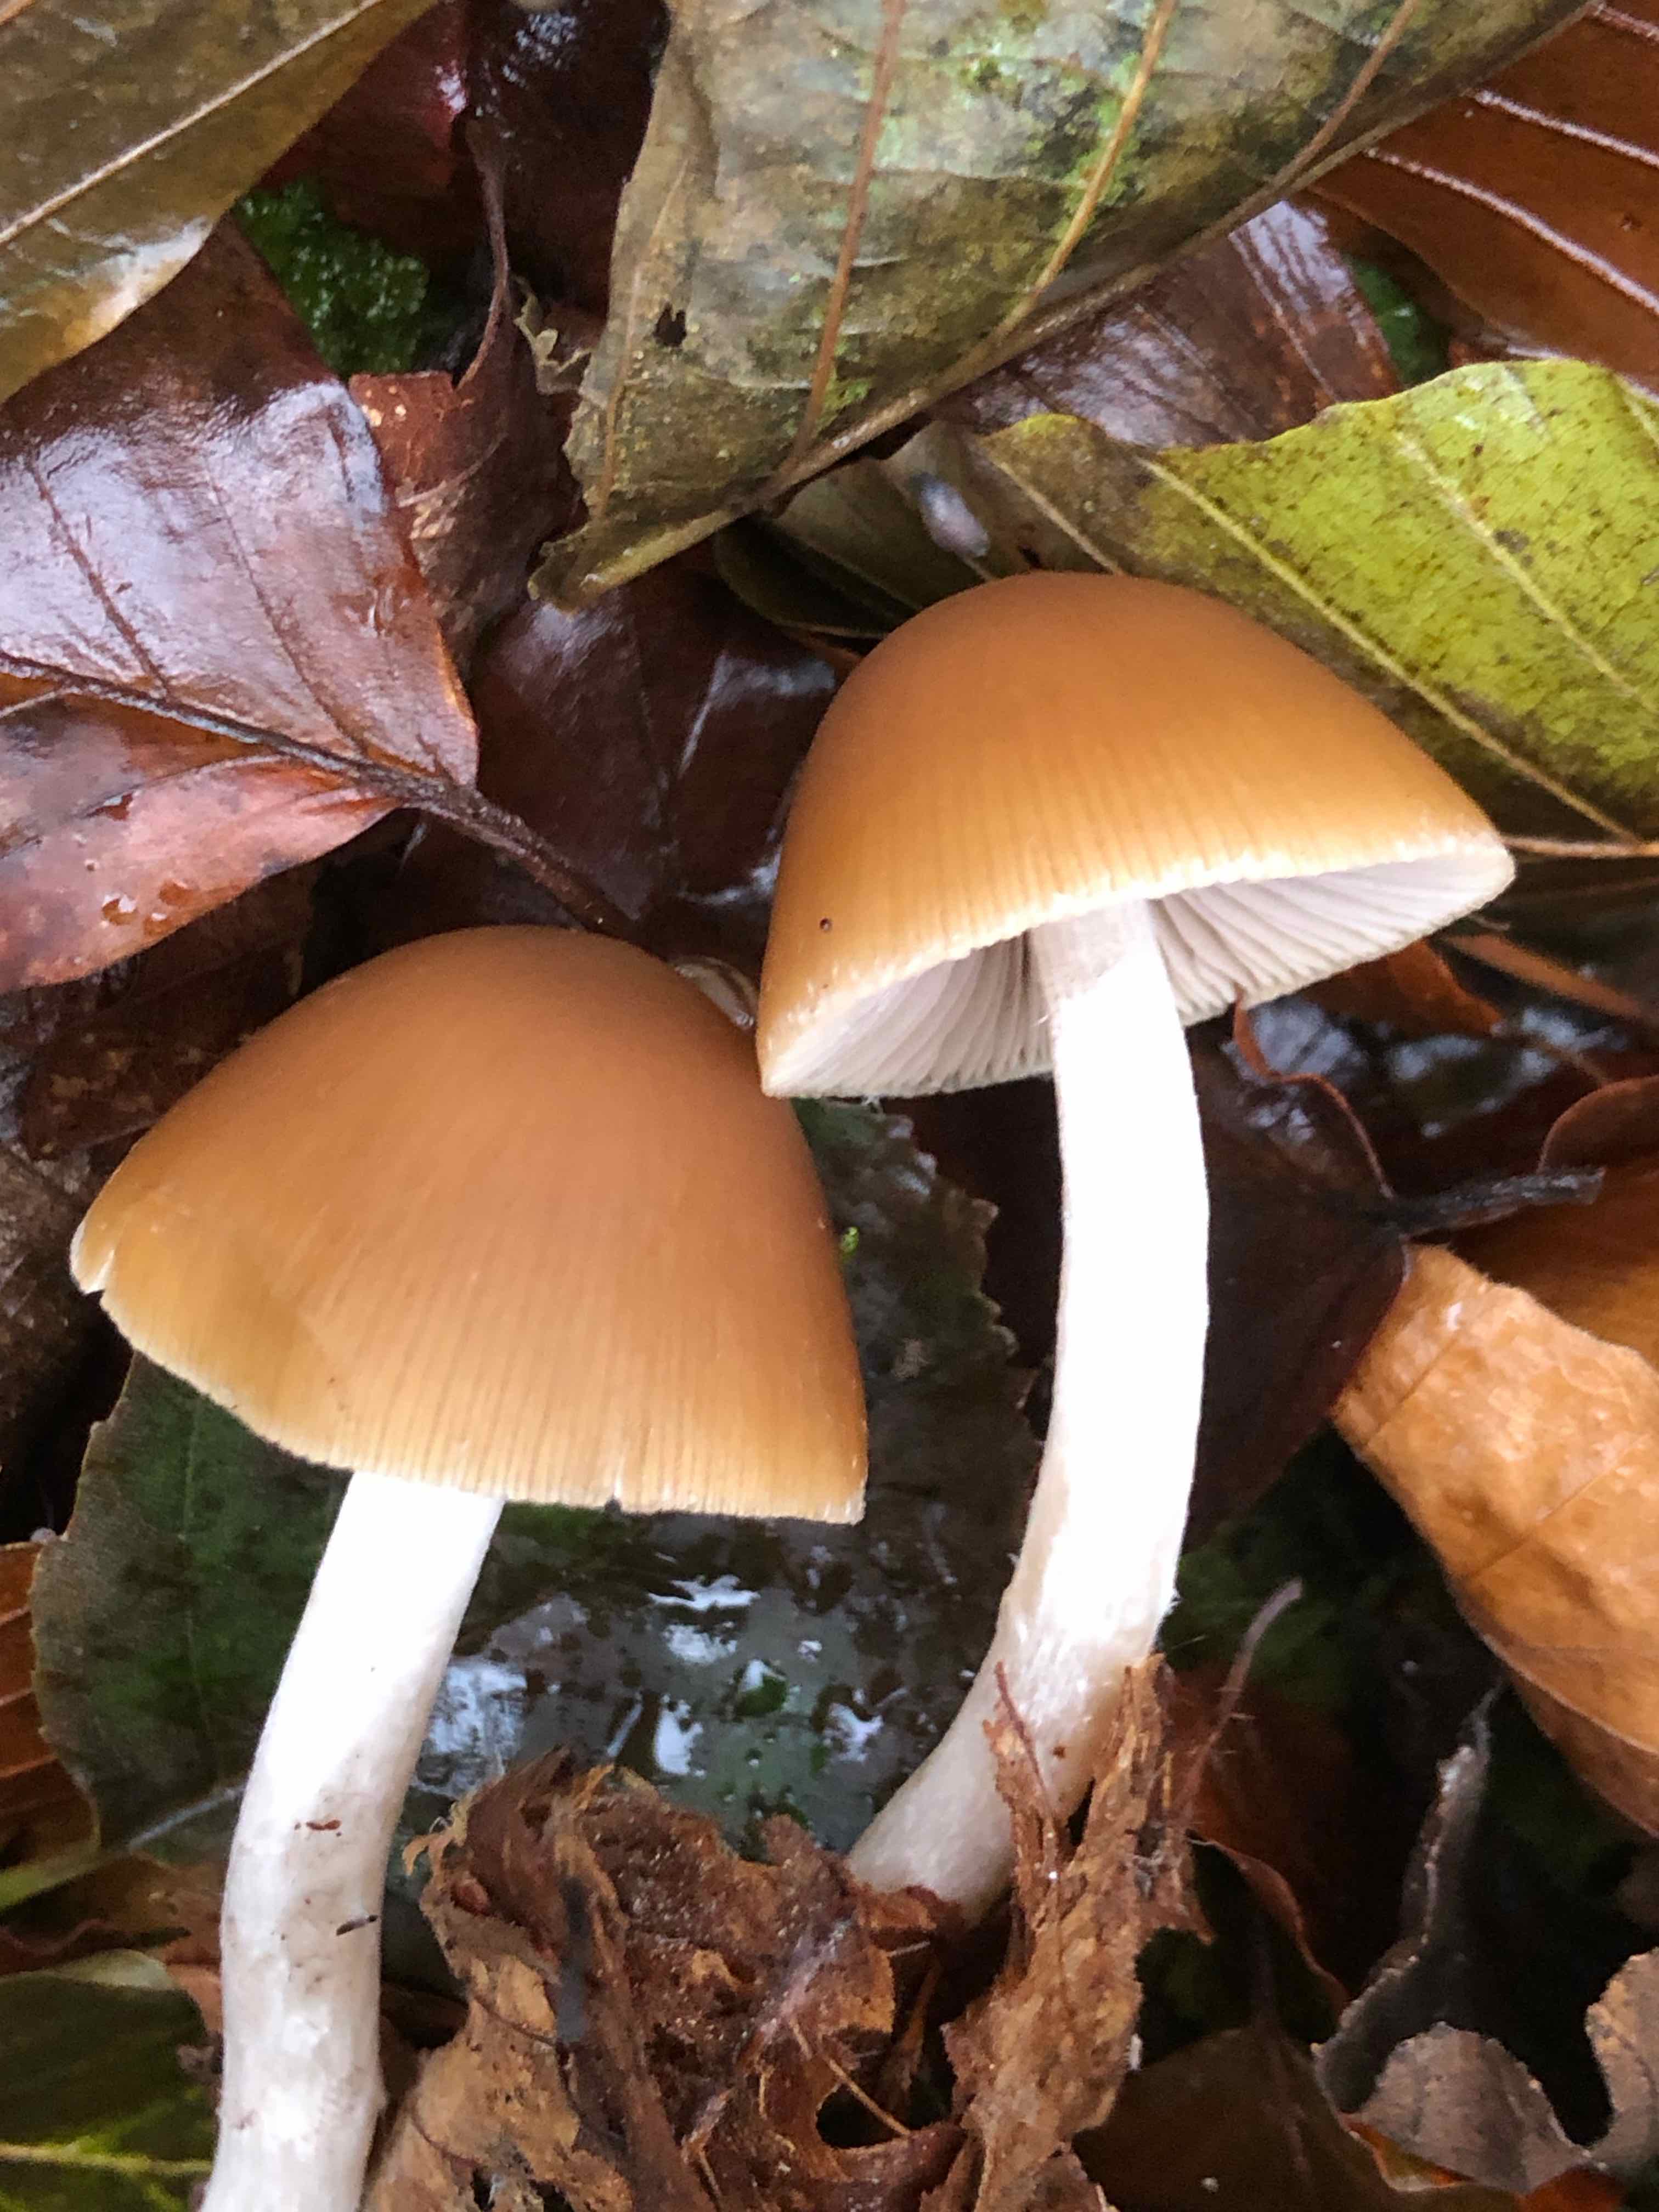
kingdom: Fungi
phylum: Basidiomycota
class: Agaricomycetes
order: Agaricales
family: Psathyrellaceae
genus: Psathyrella
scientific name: Psathyrella piluliformis
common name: lysstokket mørkhat
